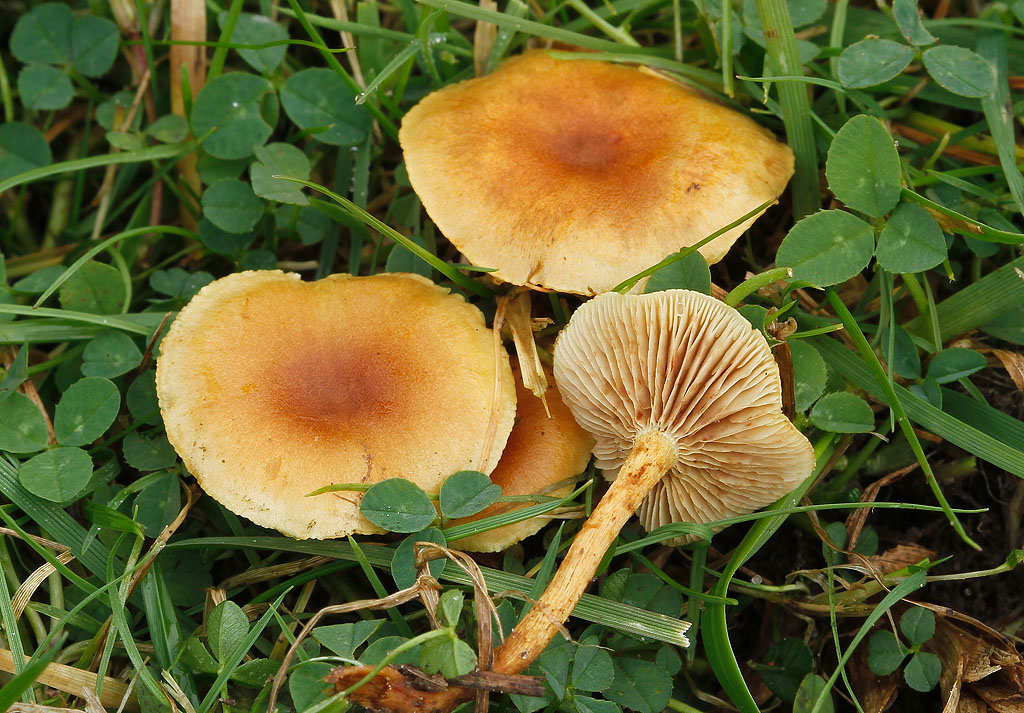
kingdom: Fungi
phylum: Basidiomycota
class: Agaricomycetes
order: Agaricales
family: Strophariaceae
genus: Pholiota
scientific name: Pholiota conissans
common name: pile-skælhat
